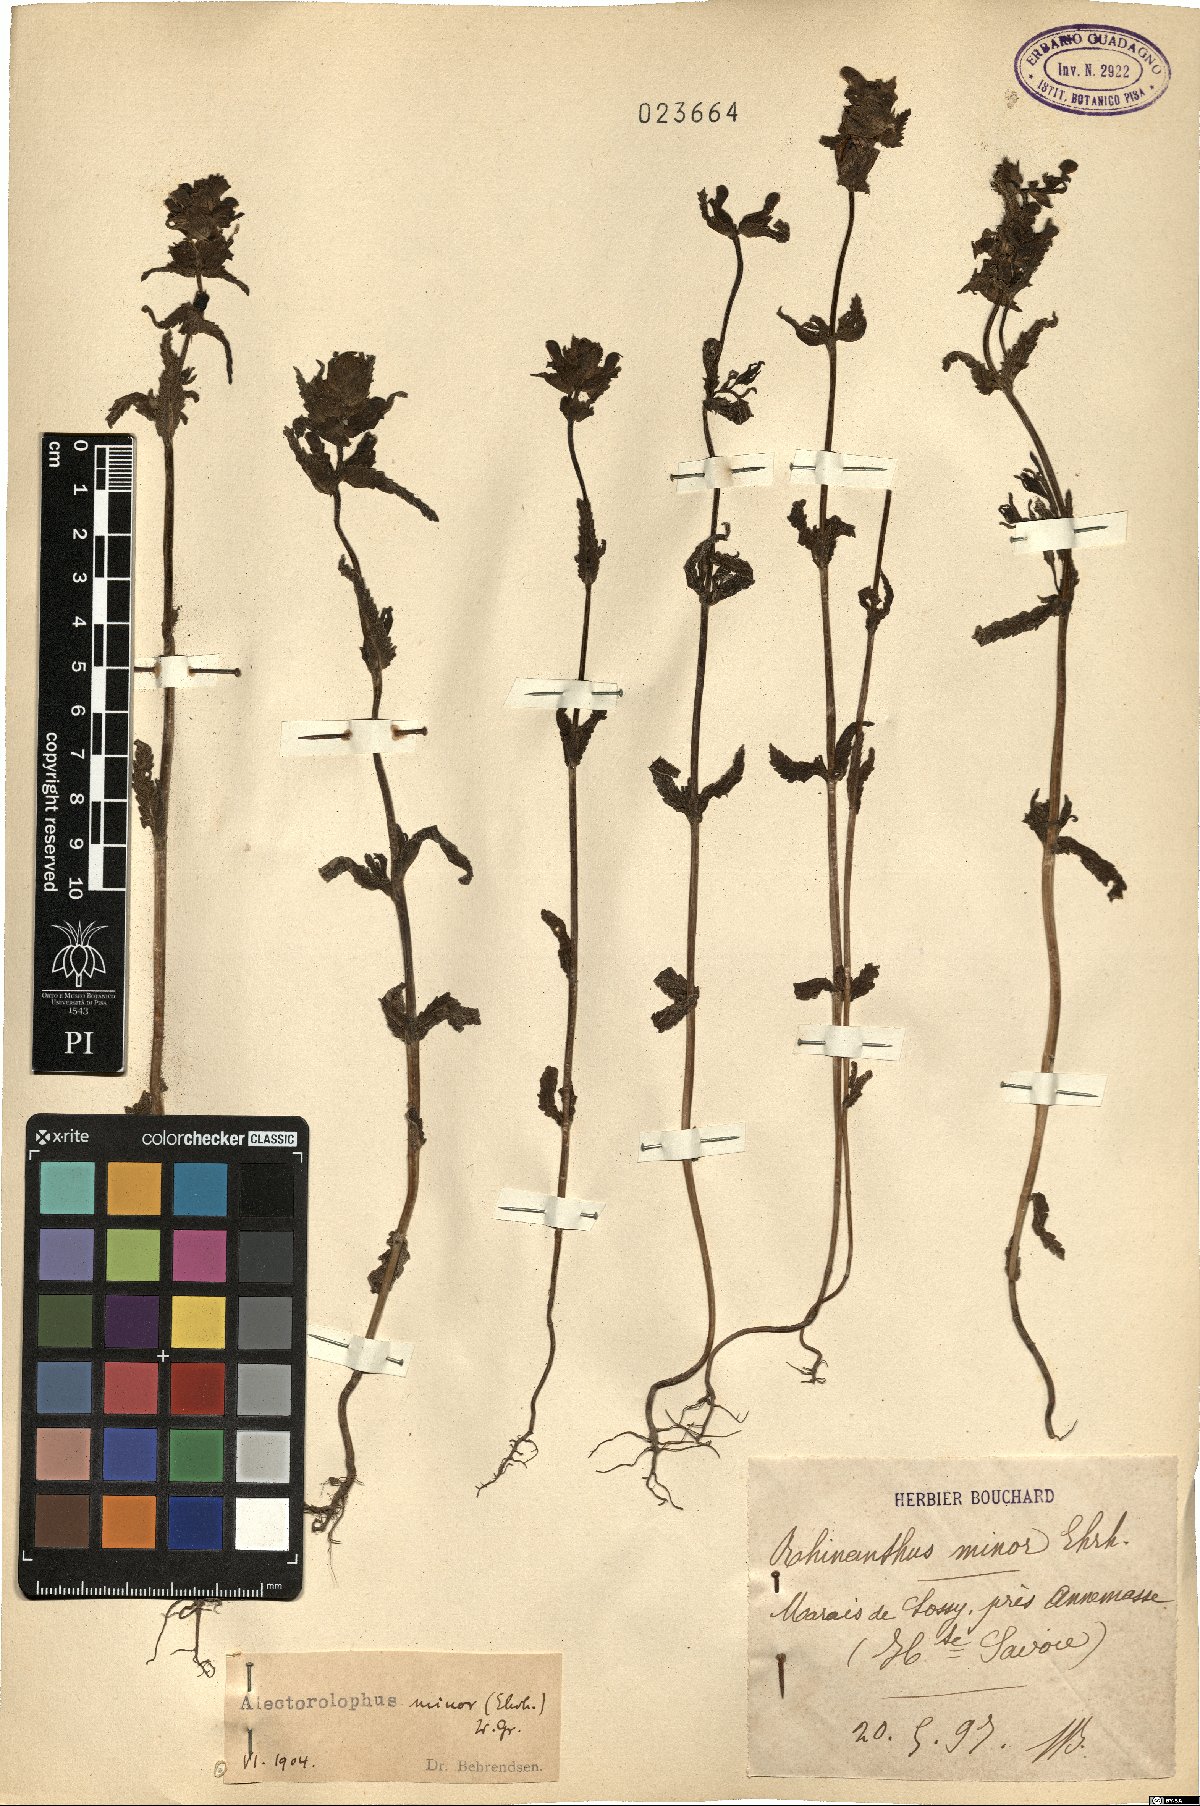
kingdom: Plantae
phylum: Tracheophyta
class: Magnoliopsida
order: Lamiales
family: Orobanchaceae
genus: Rhinanthus
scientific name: Rhinanthus minor
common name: Yellow-rattle
